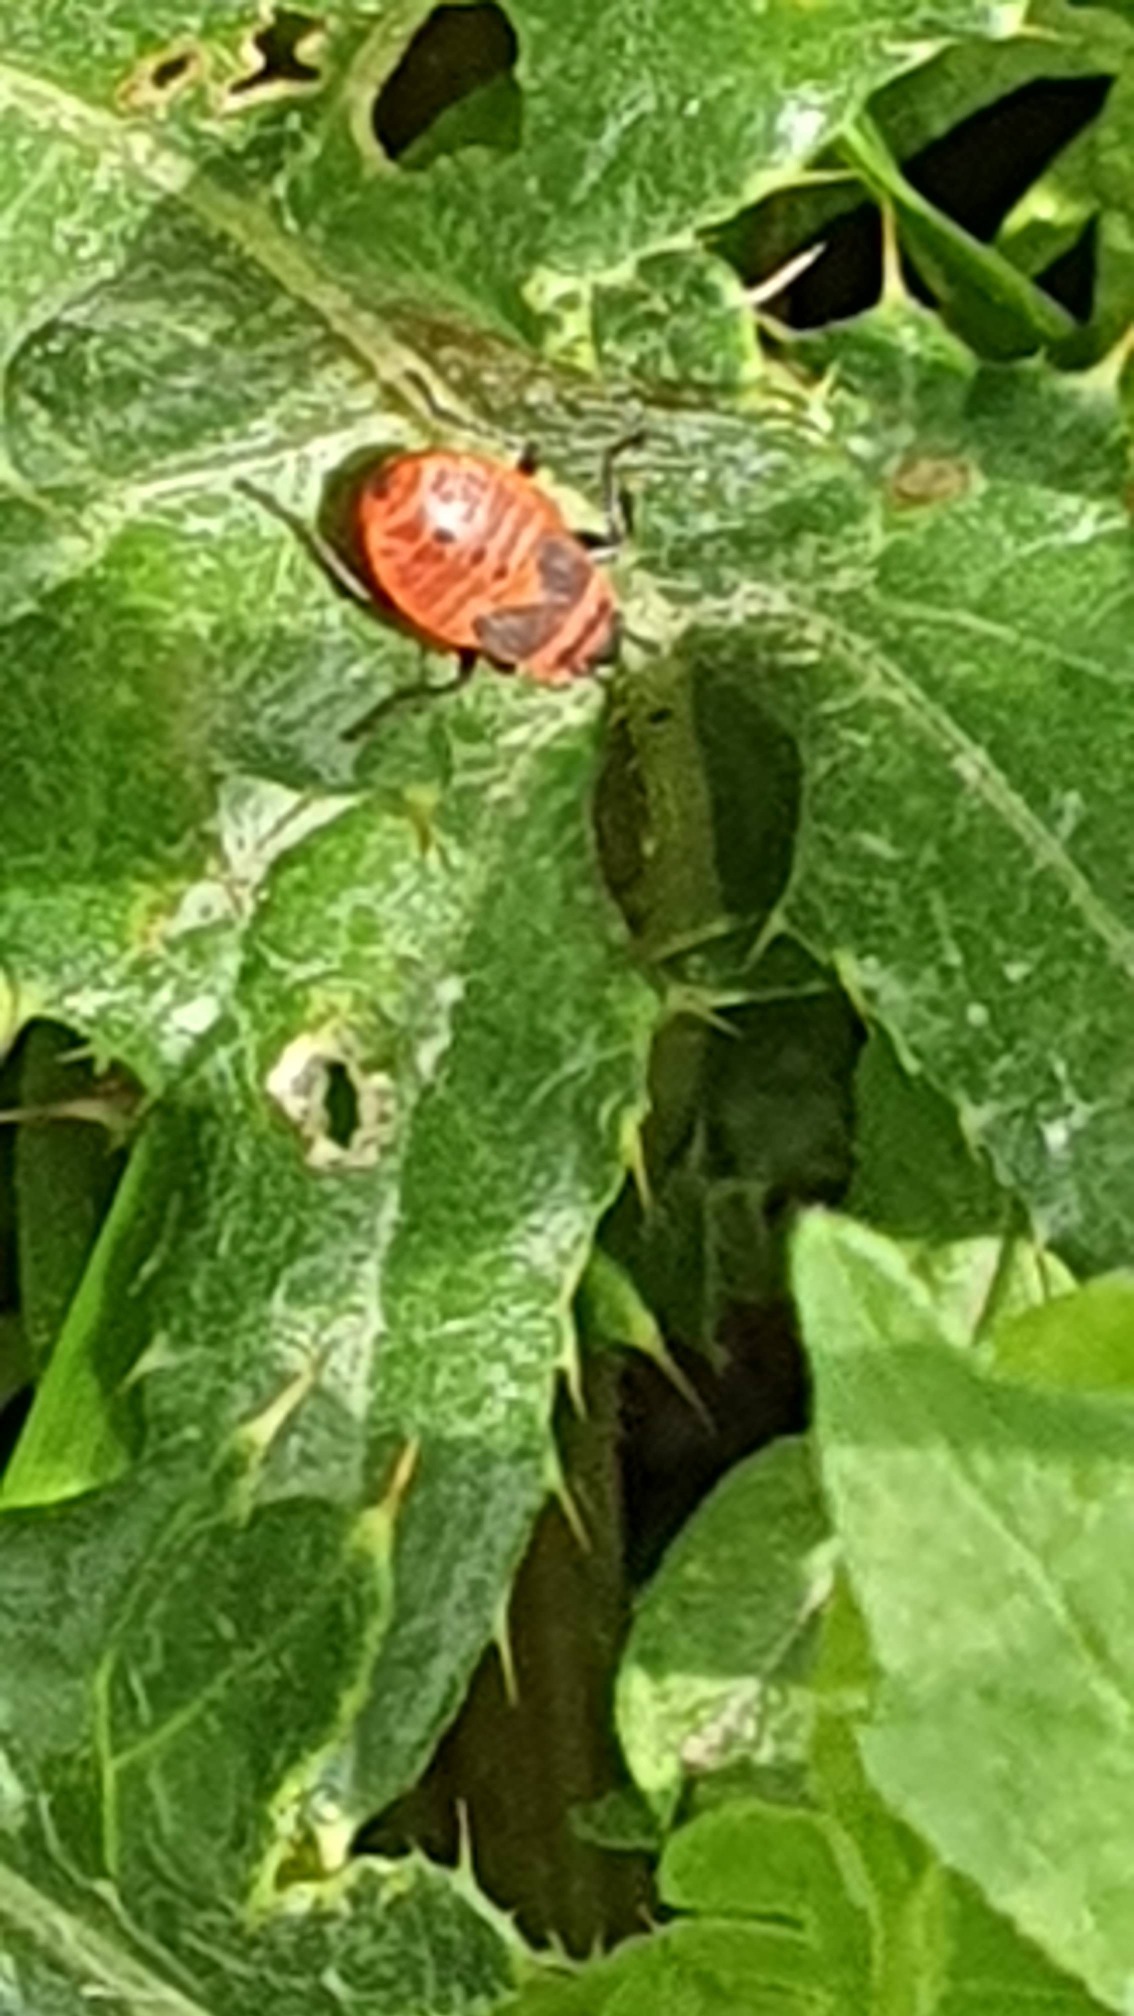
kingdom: Animalia
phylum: Arthropoda
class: Insecta
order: Hemiptera
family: Pyrrhocoridae
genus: Pyrrhocoris
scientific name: Pyrrhocoris apterus
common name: Ildtæge
